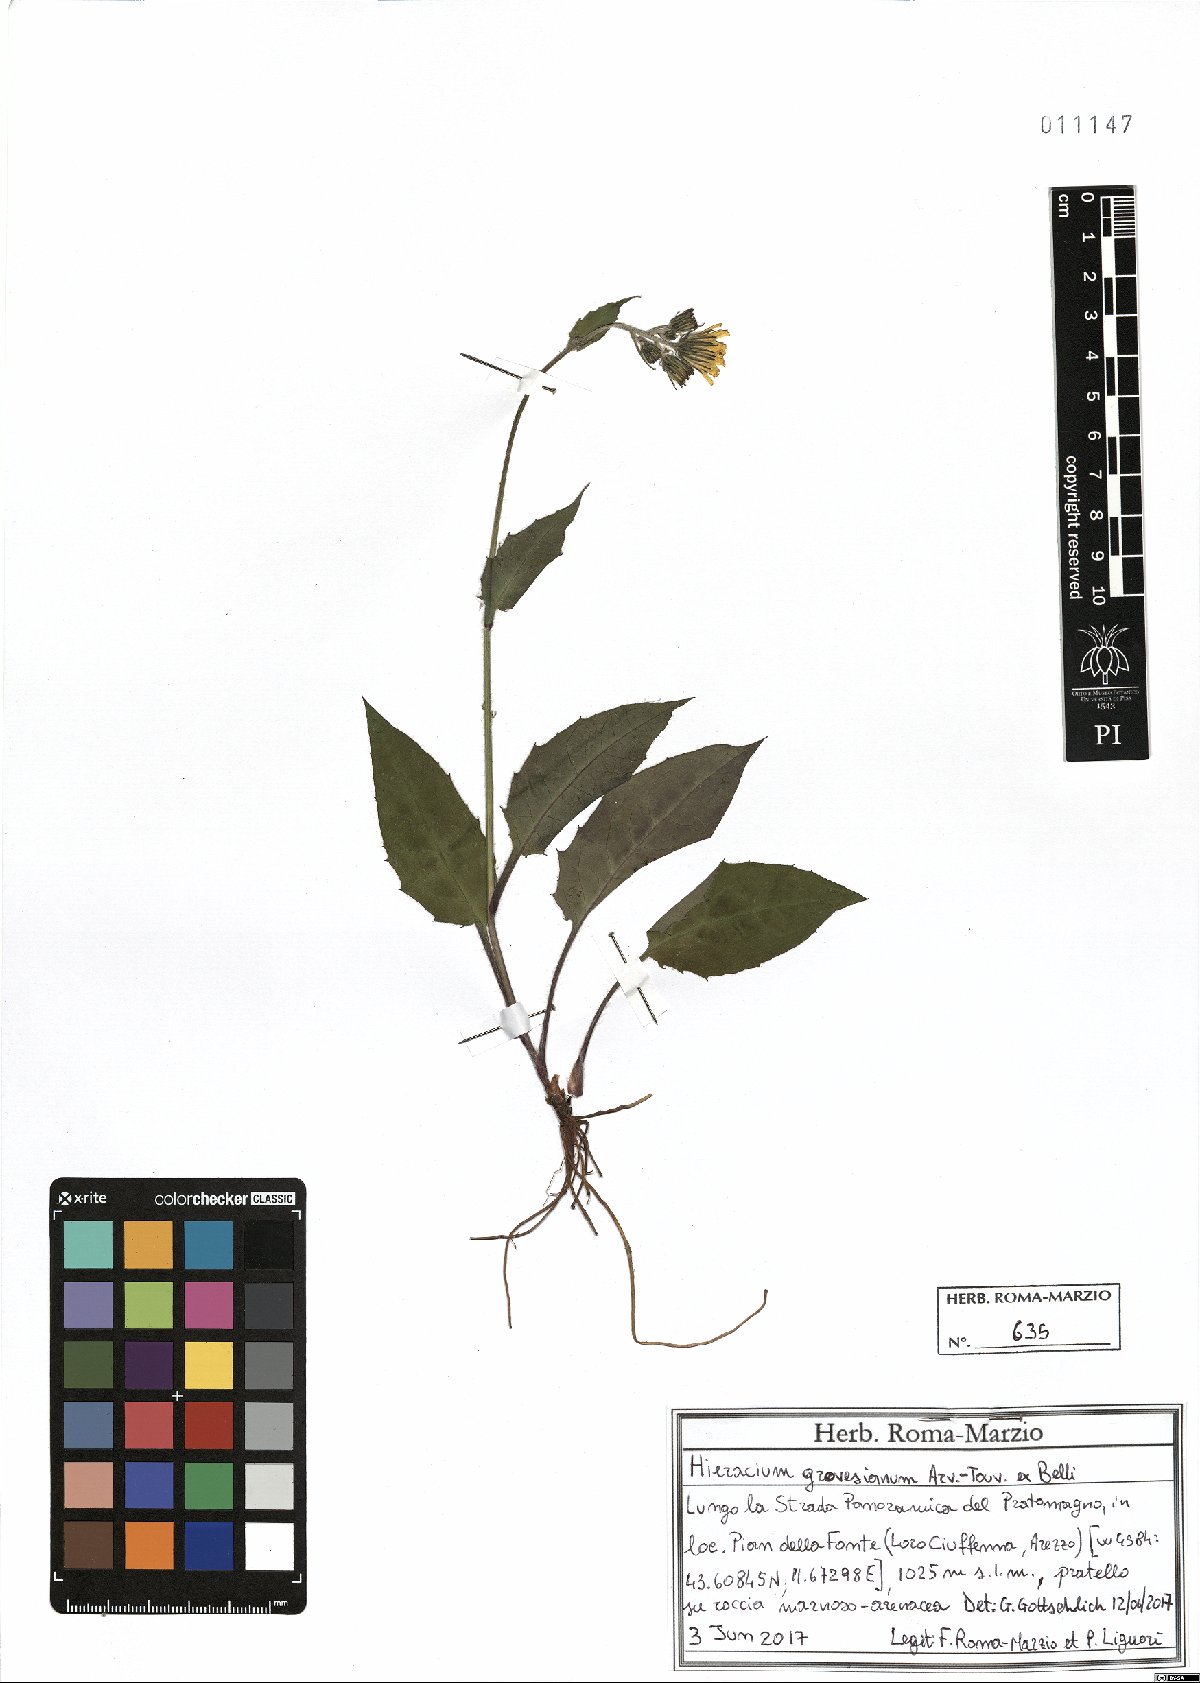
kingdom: Plantae
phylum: Tracheophyta
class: Magnoliopsida
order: Asterales
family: Asteraceae
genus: Hieracium
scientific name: Hieracium grovesianum
